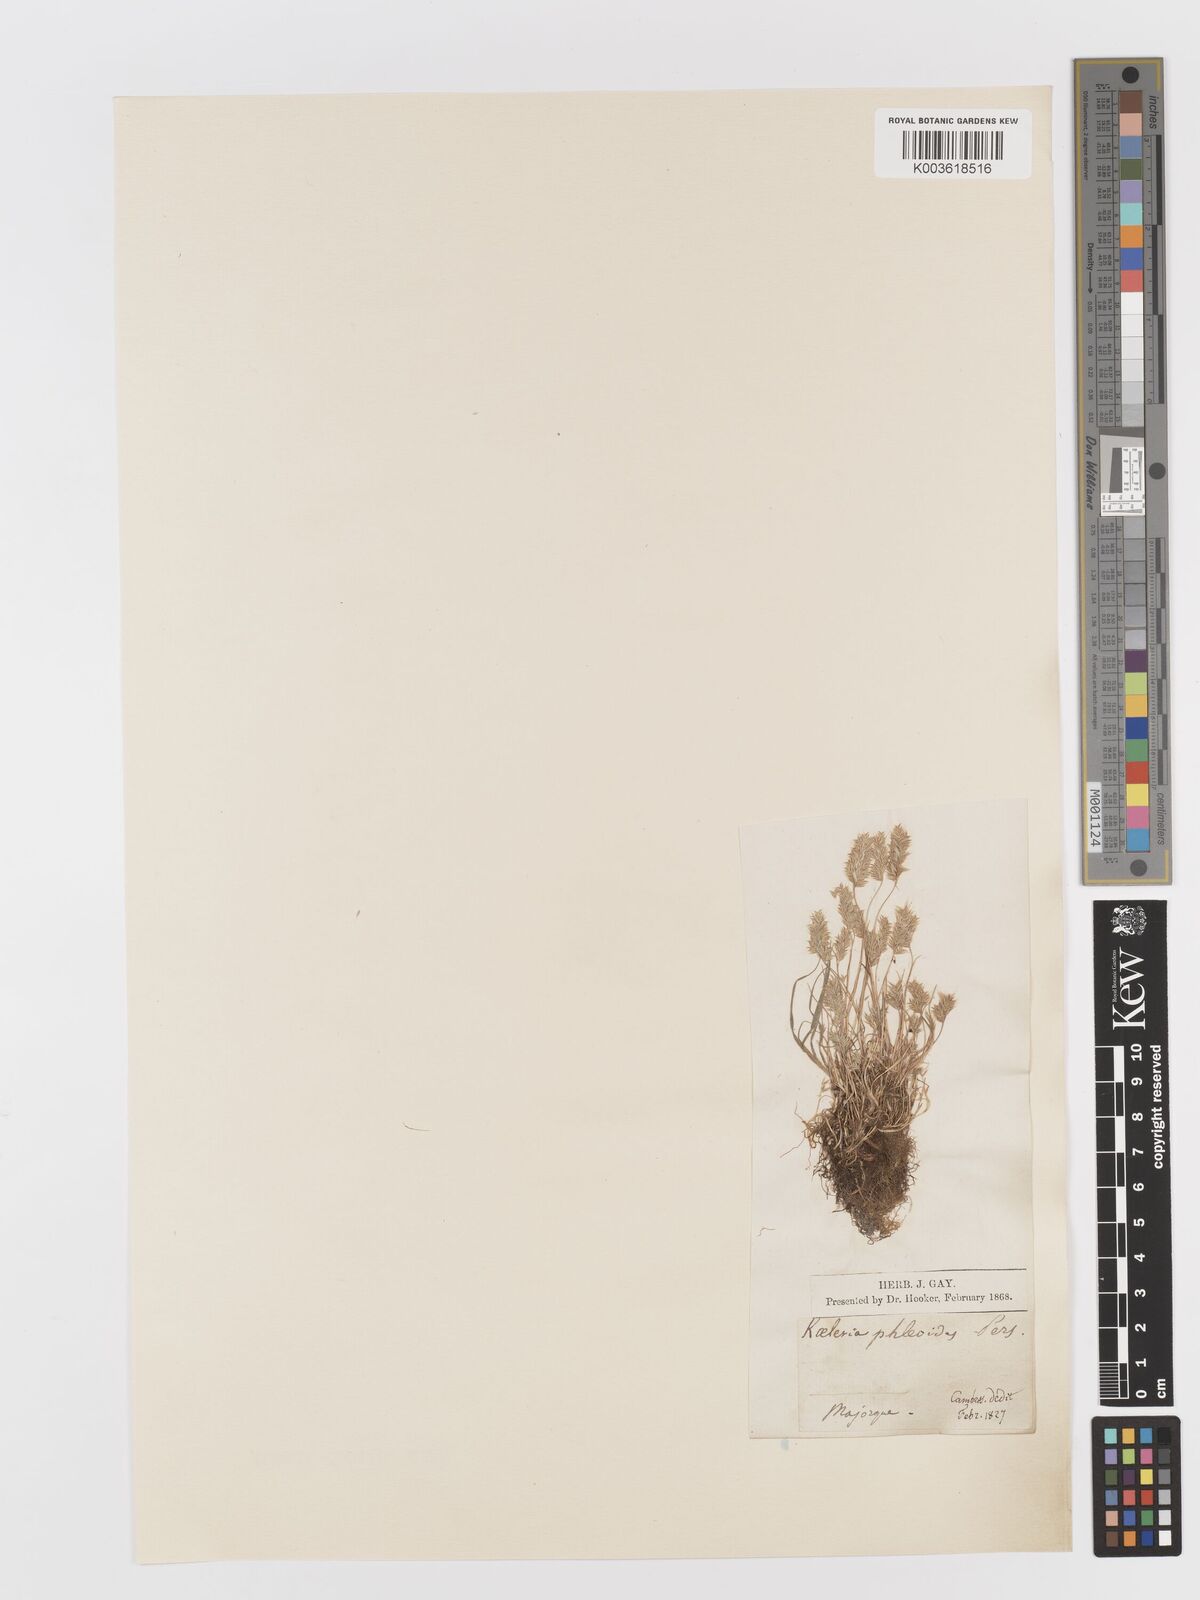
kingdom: Plantae
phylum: Tracheophyta
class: Liliopsida
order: Poales
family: Poaceae
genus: Rostraria
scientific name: Rostraria cristata
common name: Mediterranean hair-grass
